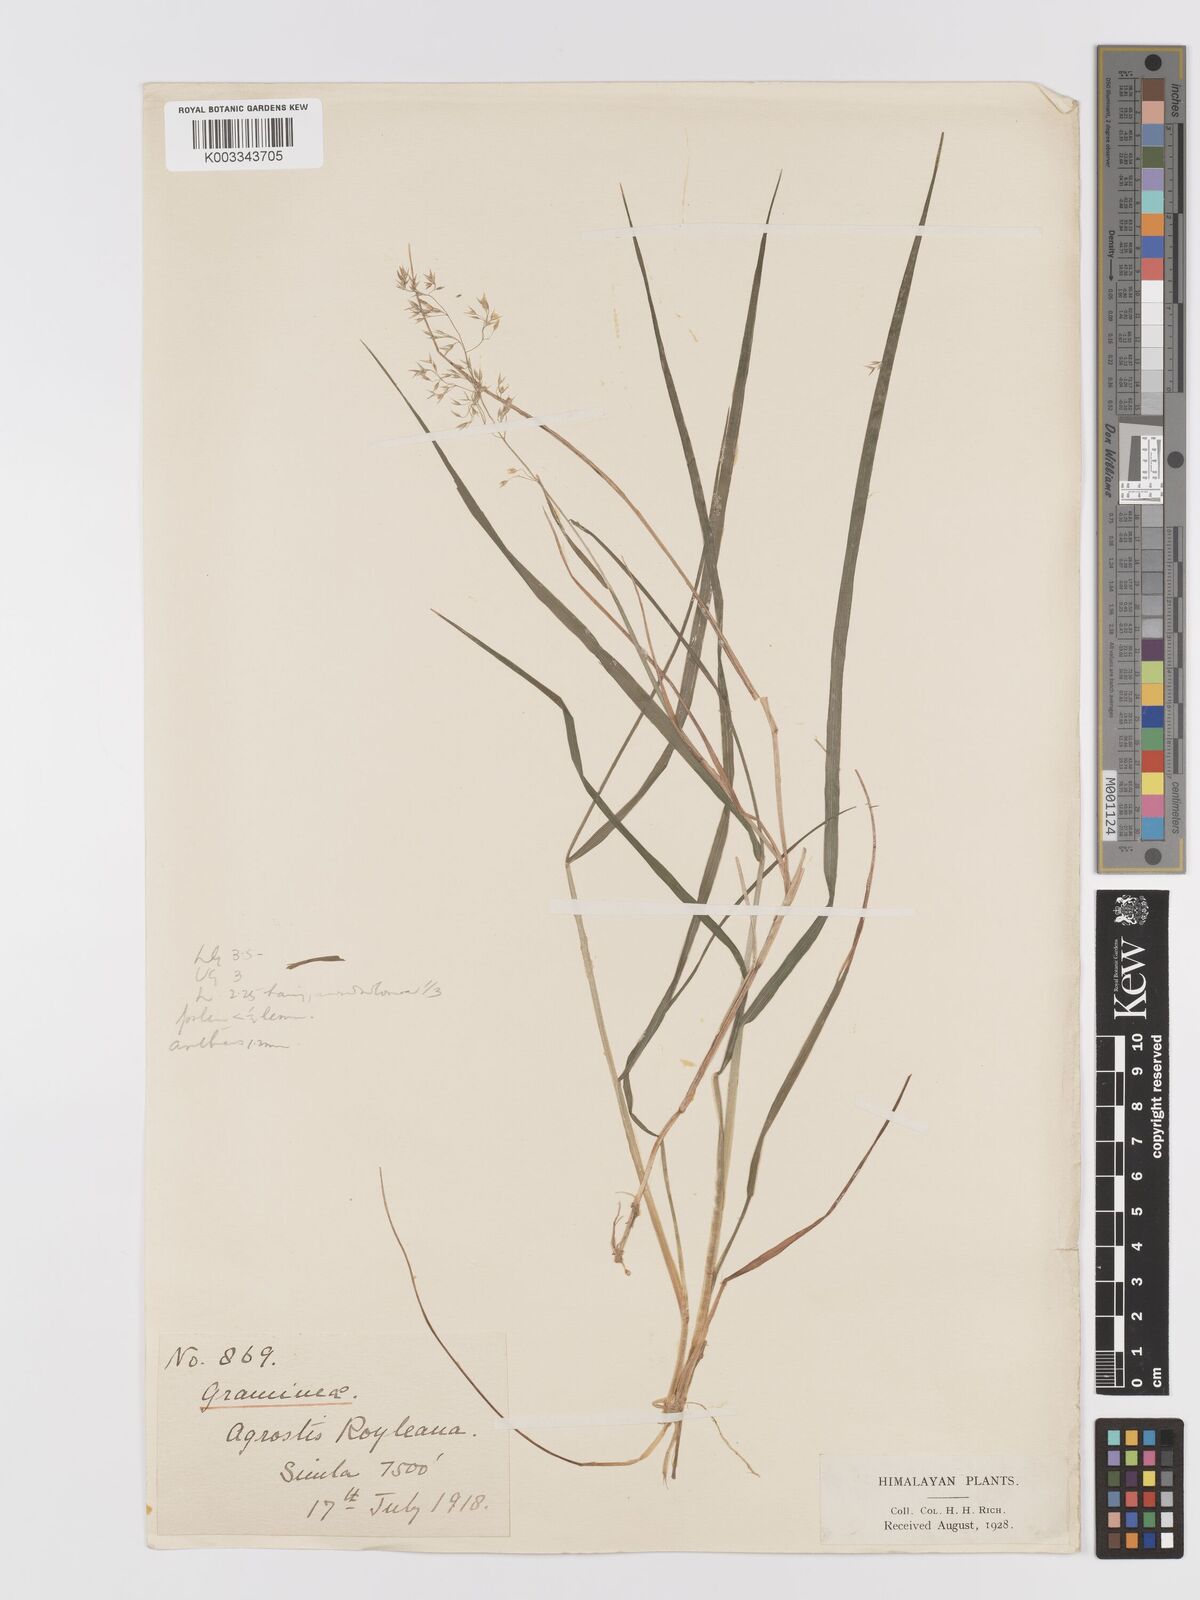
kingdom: Plantae
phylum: Tracheophyta
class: Liliopsida
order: Poales
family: Poaceae
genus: Agrostis
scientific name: Agrostis pilosula
